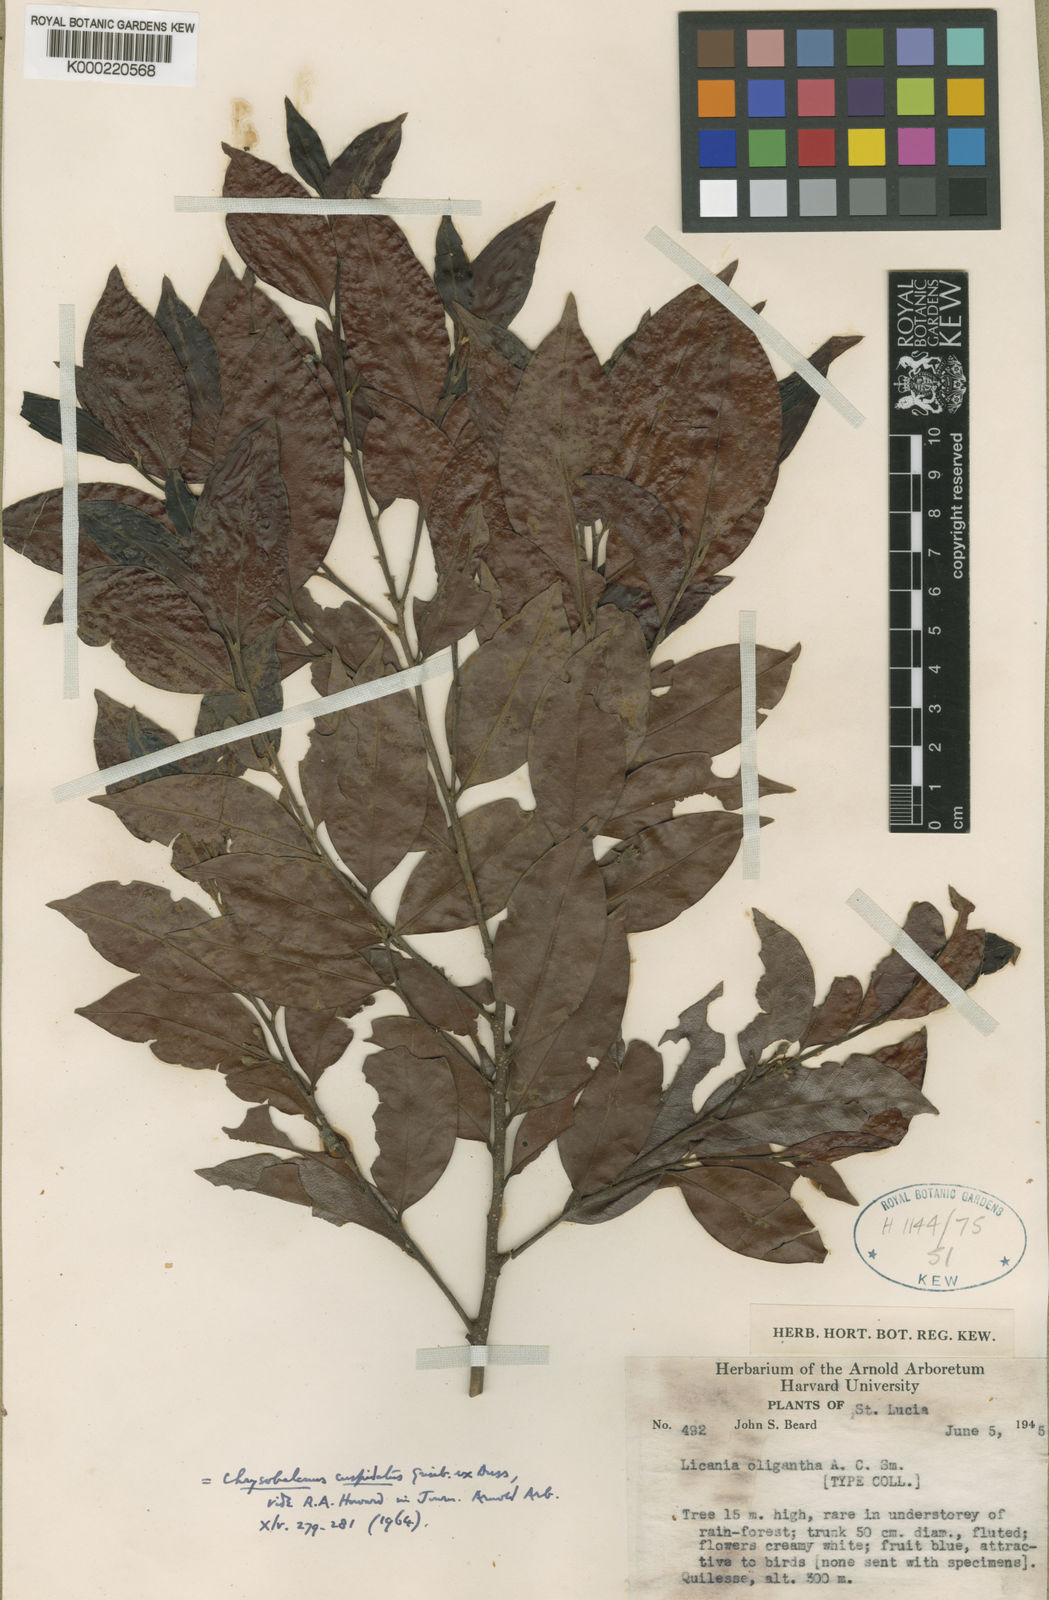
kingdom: Plantae
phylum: Tracheophyta
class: Magnoliopsida
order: Malpighiales
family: Chrysobalanaceae
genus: Chrysobalanus
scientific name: Chrysobalanus cuspidatus
